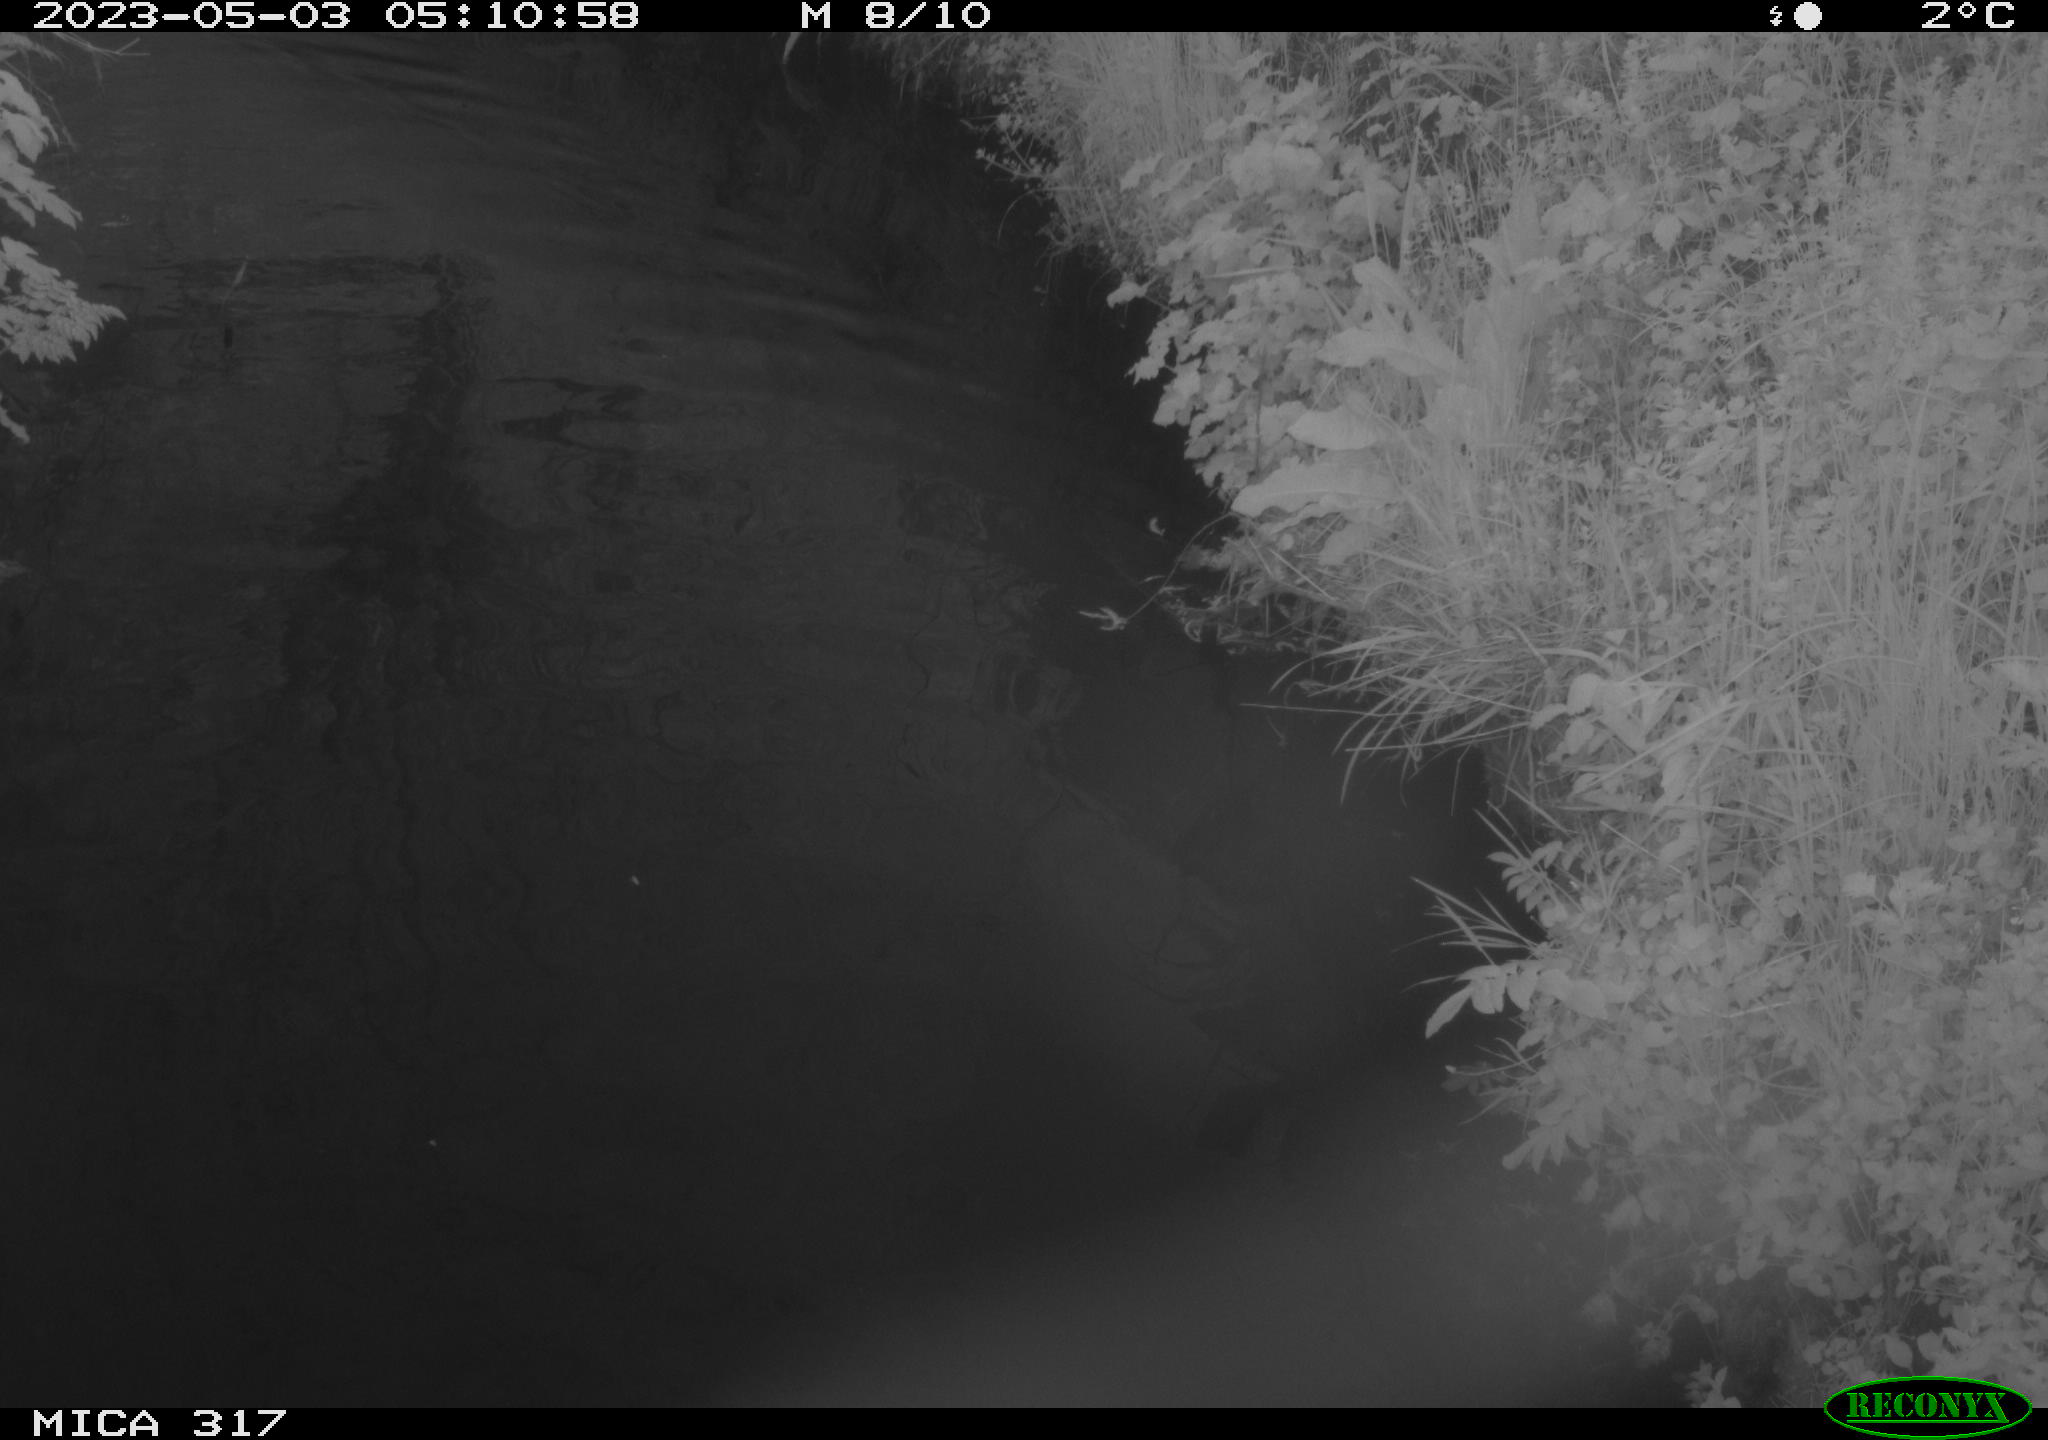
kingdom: Animalia
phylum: Chordata
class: Aves
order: Gruiformes
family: Rallidae
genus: Fulica
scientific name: Fulica atra
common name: Eurasian coot
